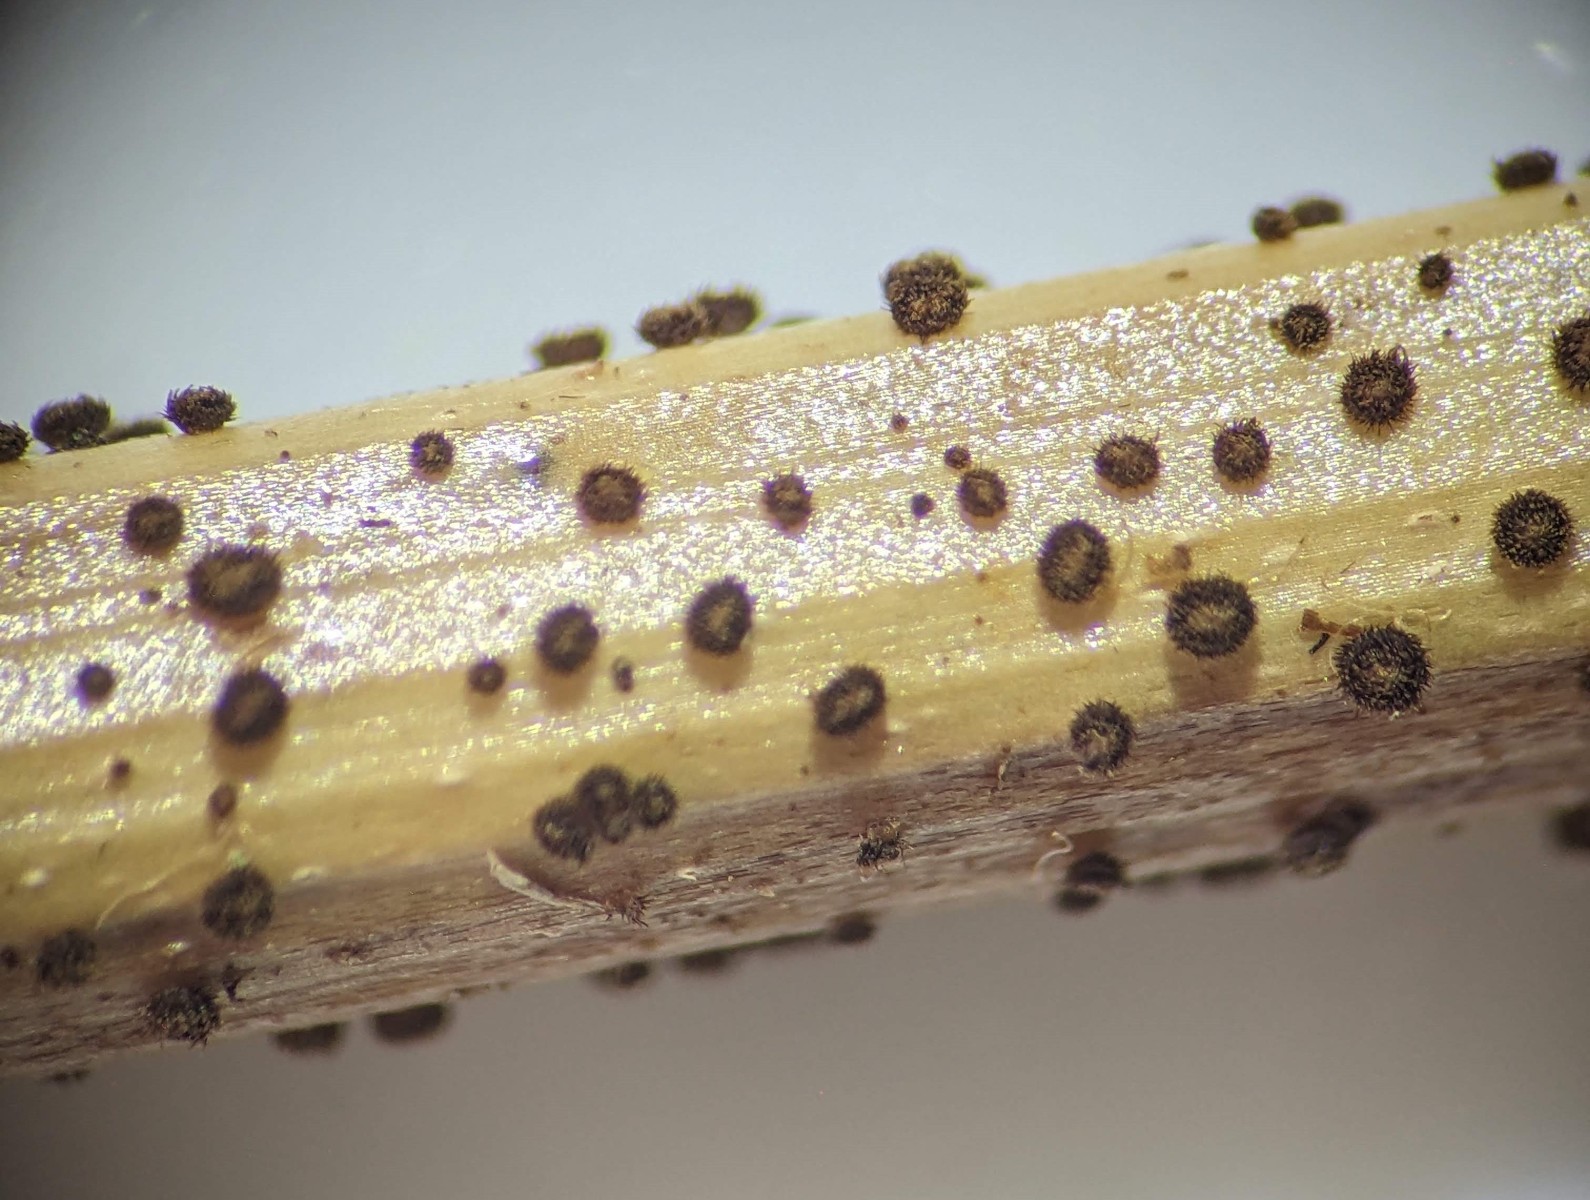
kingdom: Fungi
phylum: Ascomycota
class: Leotiomycetes
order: Helotiales
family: Solenopeziaceae
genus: Lasiobelonium
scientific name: Lasiobelonium nidulus
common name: rede-frynseskive
